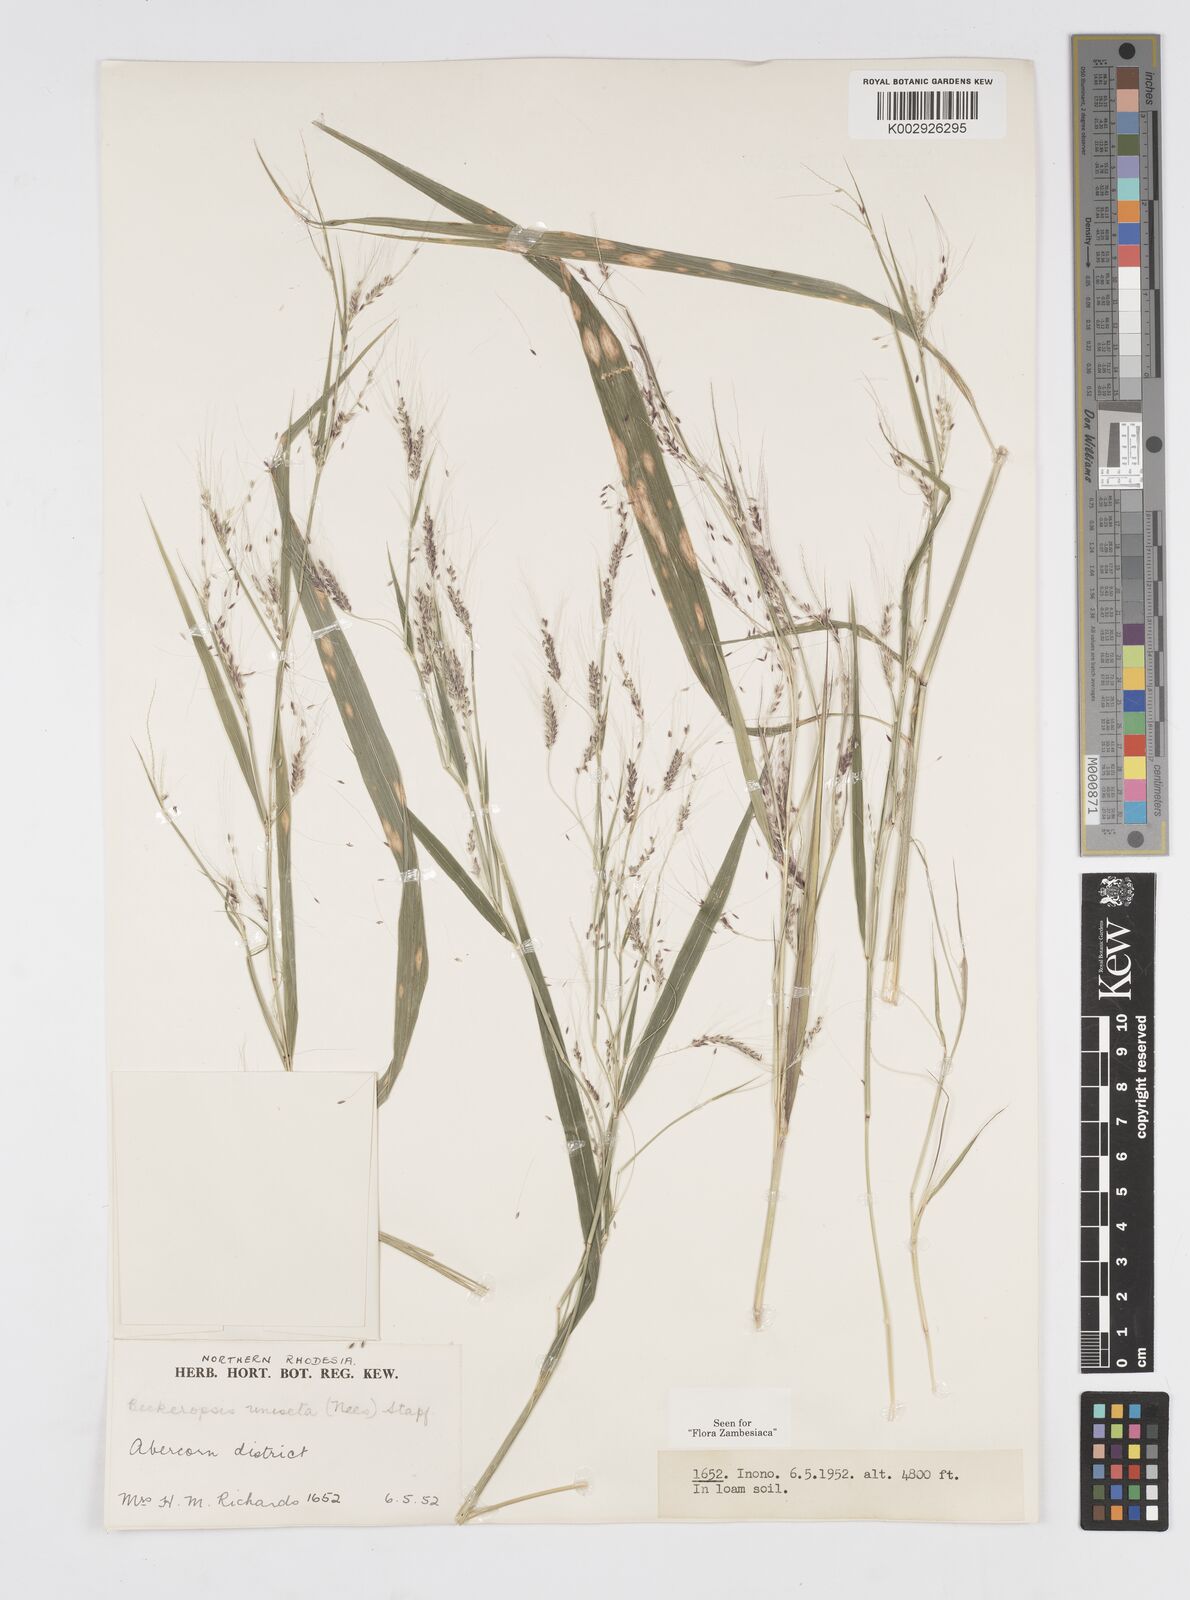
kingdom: Plantae
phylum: Tracheophyta
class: Liliopsida
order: Poales
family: Poaceae
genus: Cenchrus
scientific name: Cenchrus unisetus
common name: Natal grass
